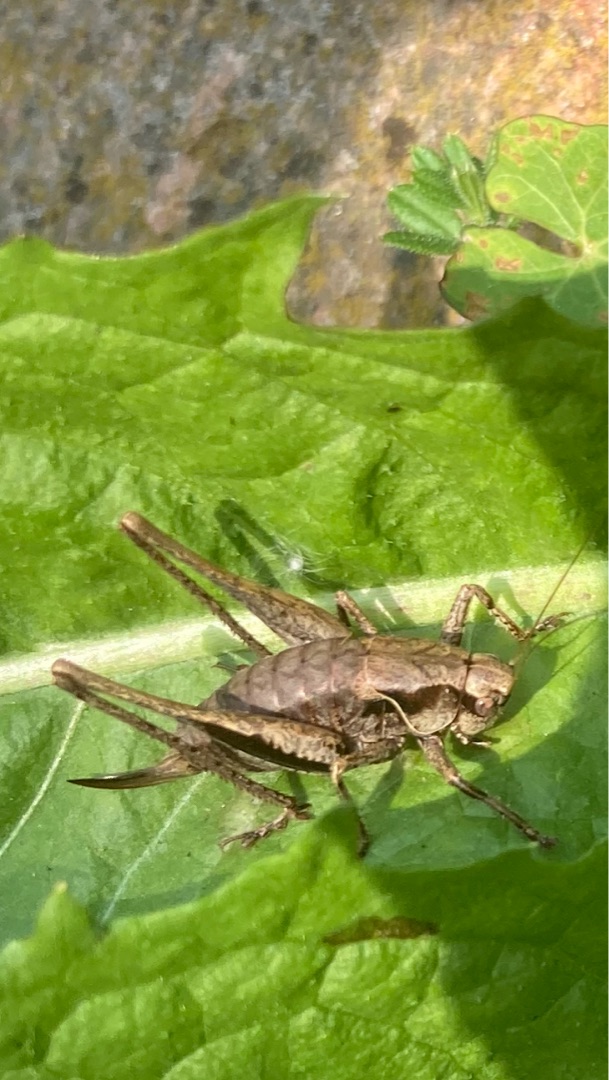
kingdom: Animalia
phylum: Arthropoda
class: Insecta
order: Orthoptera
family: Tettigoniidae
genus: Pholidoptera
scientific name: Pholidoptera griseoaptera
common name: Buskgræshoppe
